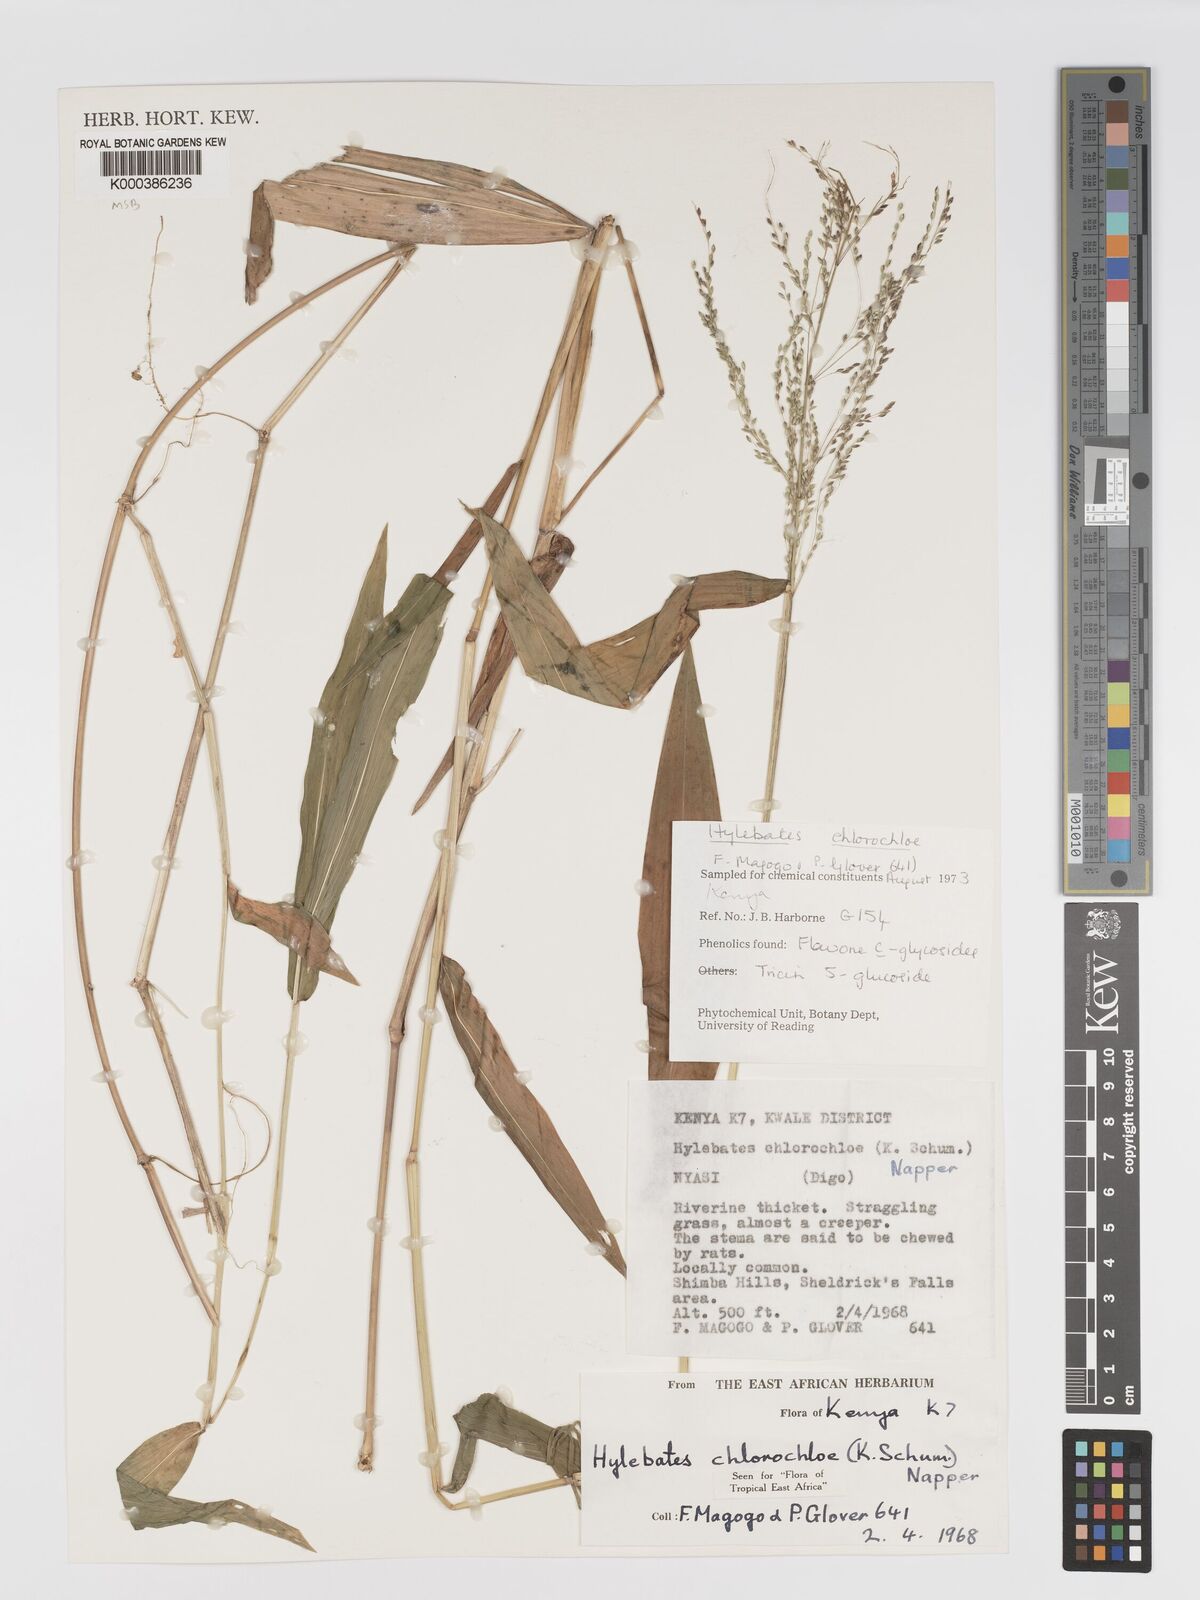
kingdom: Plantae
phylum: Tracheophyta
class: Liliopsida
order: Poales
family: Poaceae
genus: Hylebates
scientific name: Hylebates chlorochloe
